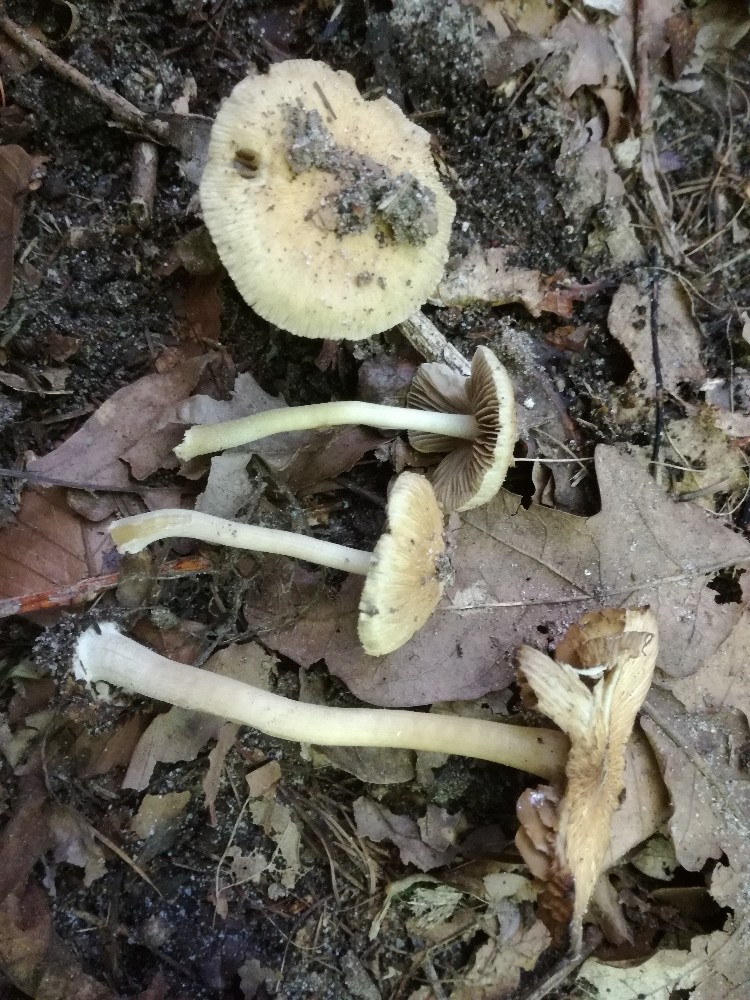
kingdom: Fungi
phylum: Basidiomycota
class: Agaricomycetes
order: Agaricales
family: Inocybaceae
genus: Inocybe
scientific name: Inocybe vaurasii
